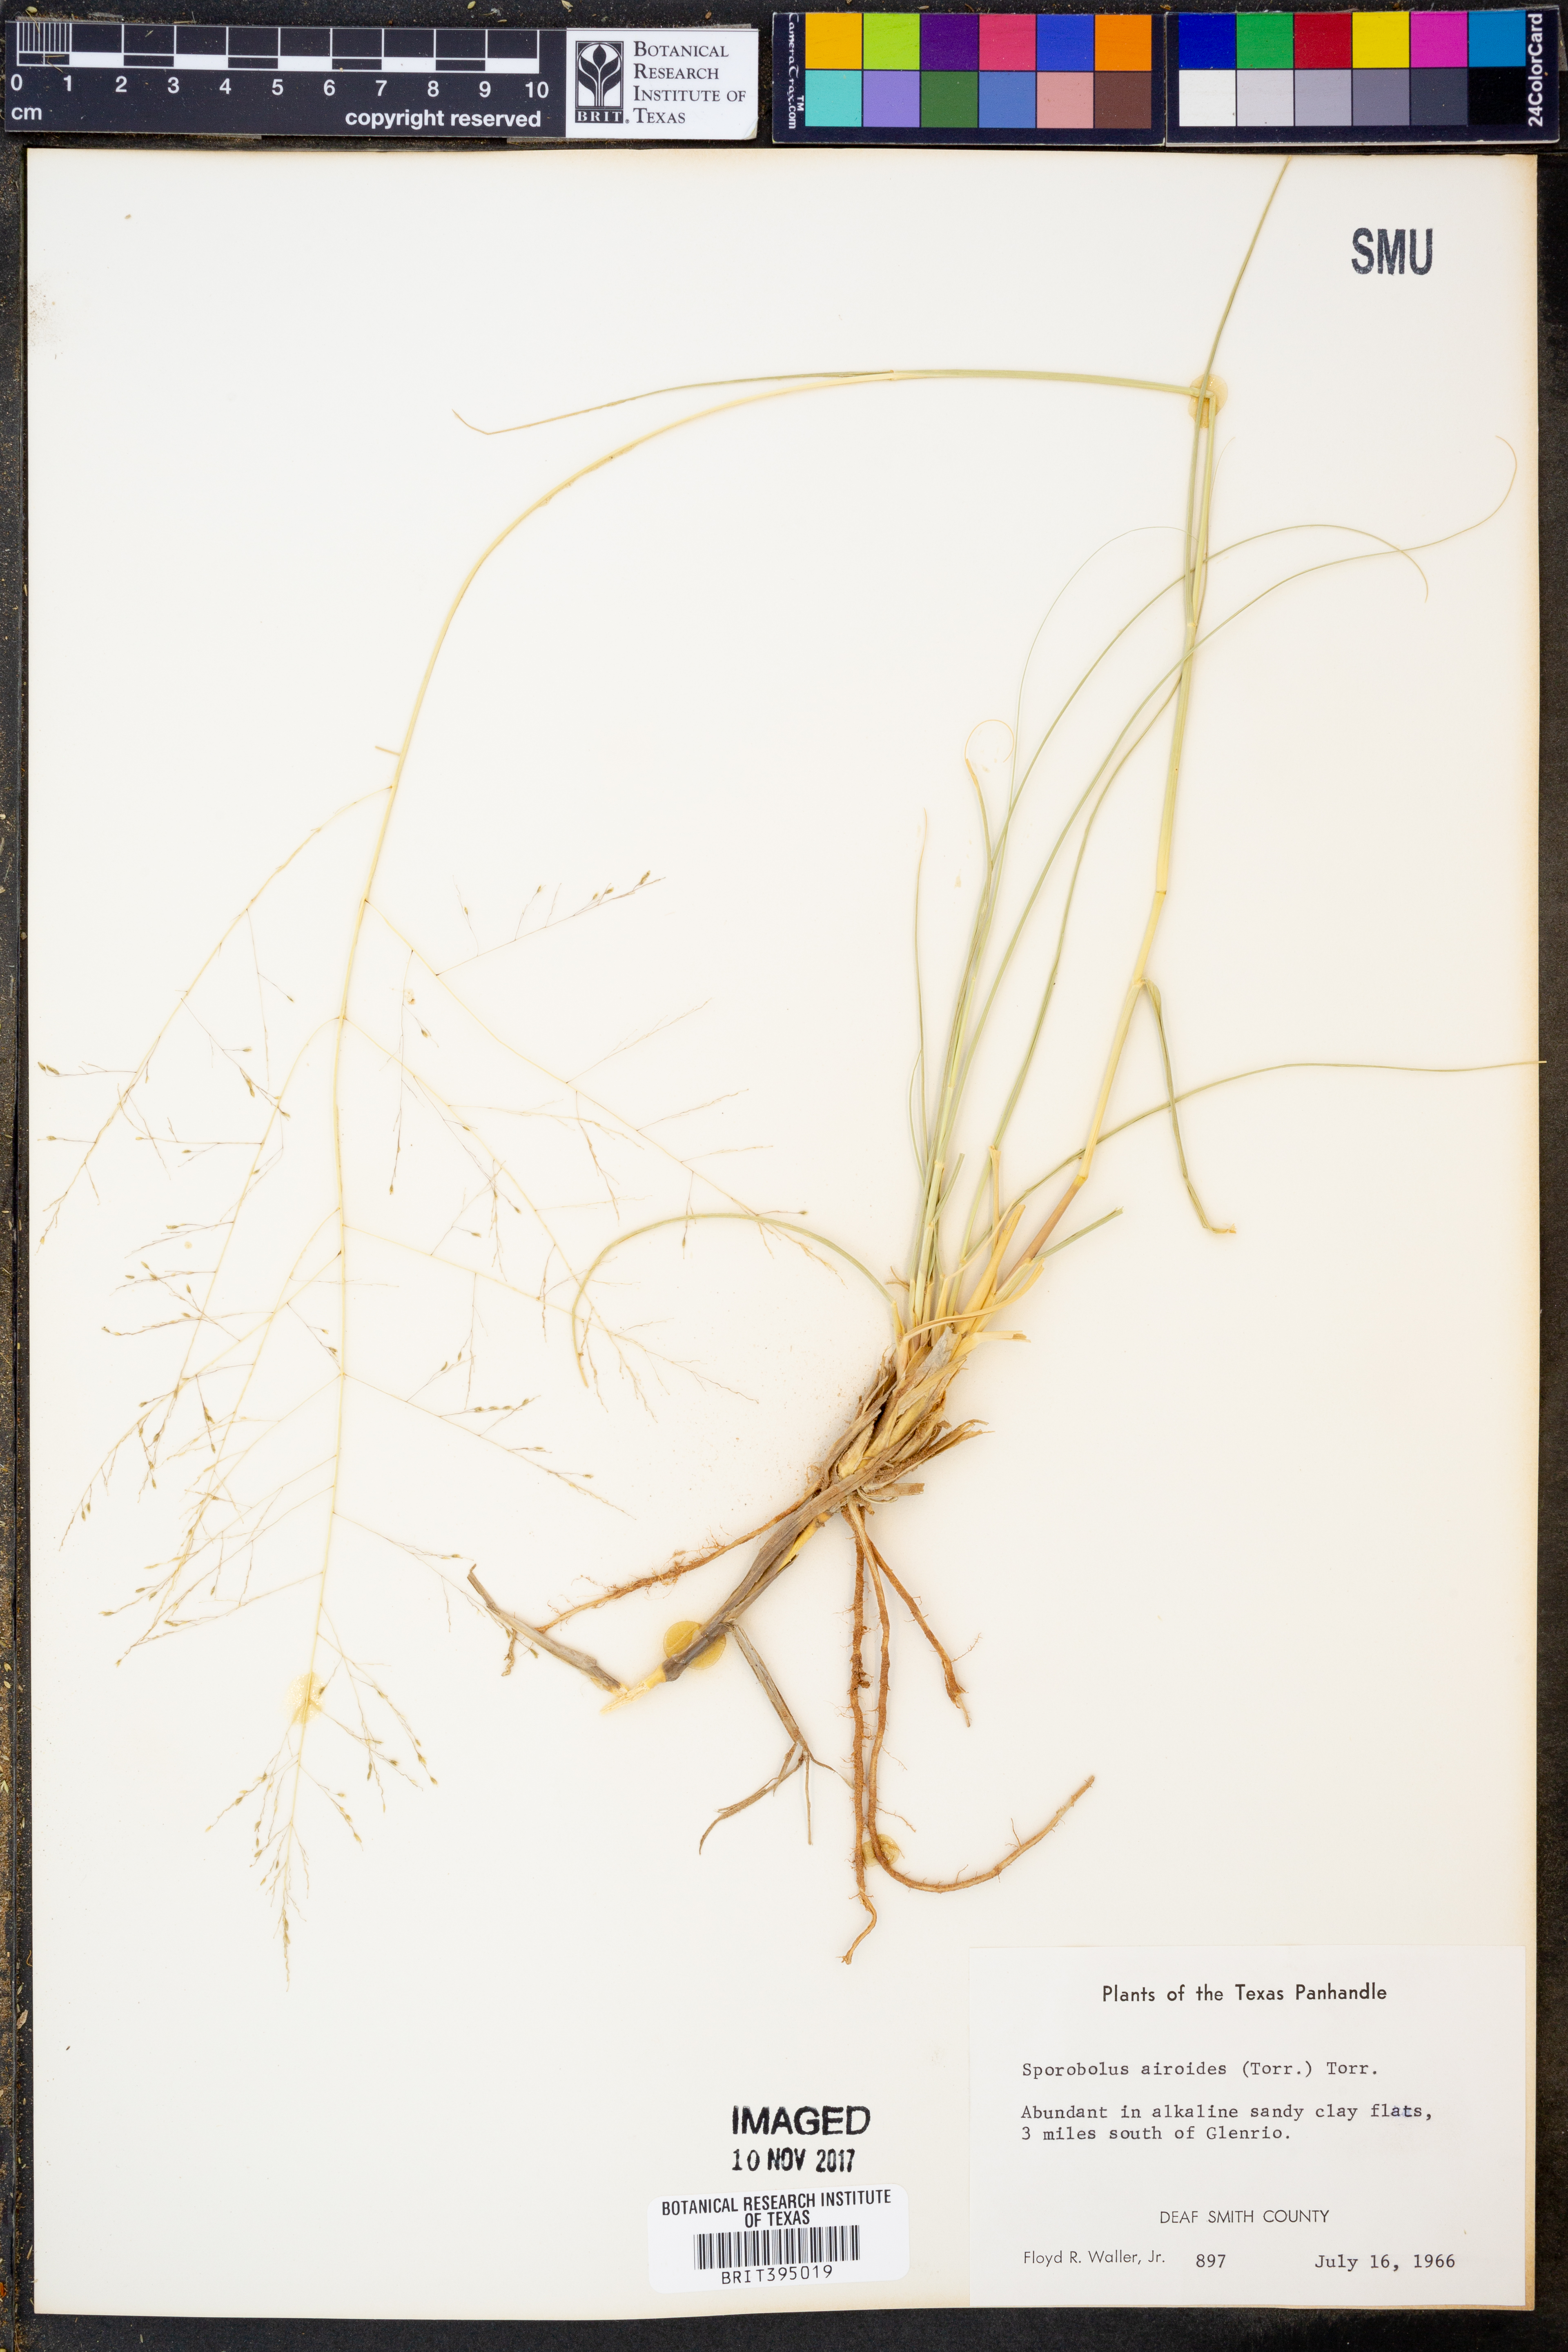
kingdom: Plantae
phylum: Tracheophyta
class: Liliopsida
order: Poales
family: Poaceae
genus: Sporobolus
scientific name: Sporobolus airoides
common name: Alkali sacaton
